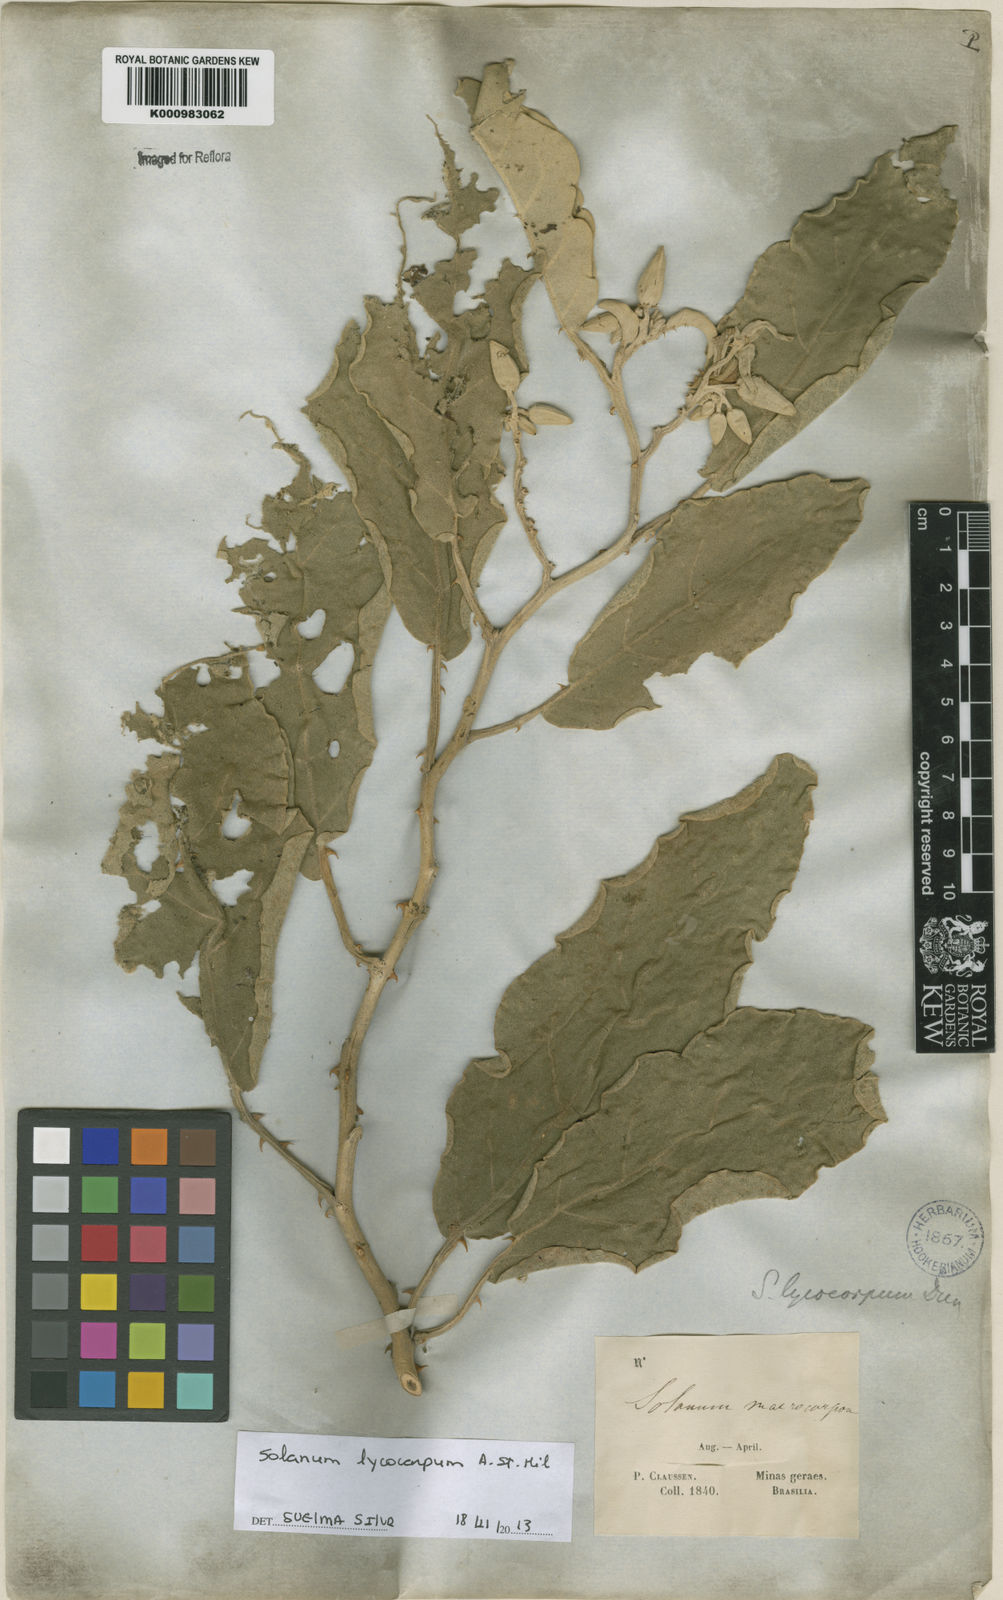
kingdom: Plantae
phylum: Tracheophyta
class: Magnoliopsida
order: Solanales
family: Solanaceae
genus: Solanum
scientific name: Solanum lycocarpum
